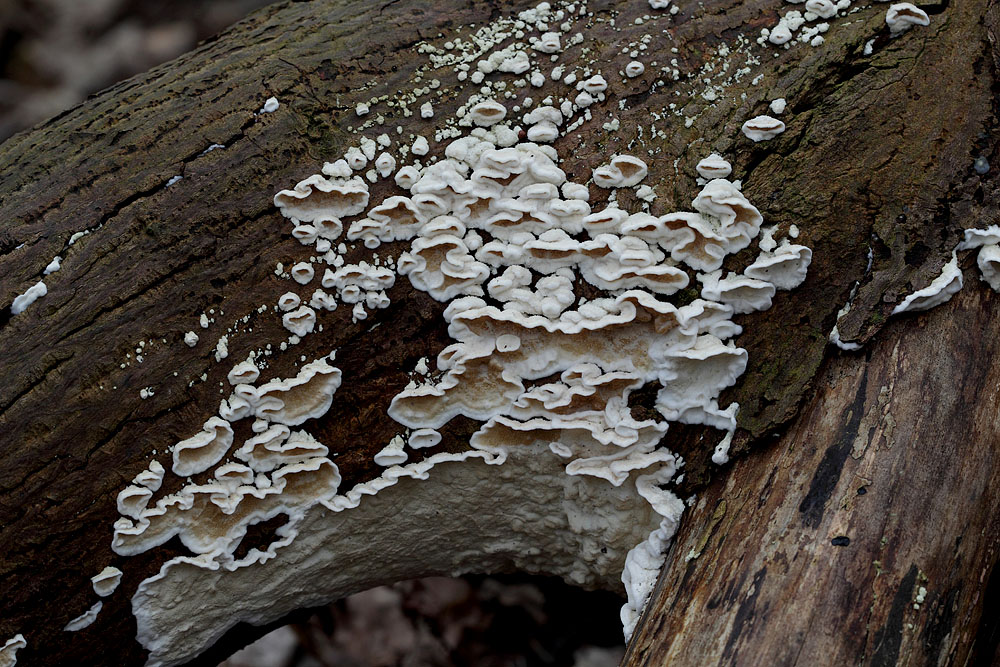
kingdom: Fungi
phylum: Basidiomycota
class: Agaricomycetes
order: Polyporales
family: Irpicaceae
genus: Byssomerulius
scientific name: Byssomerulius corium
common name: læder-åresvamp
